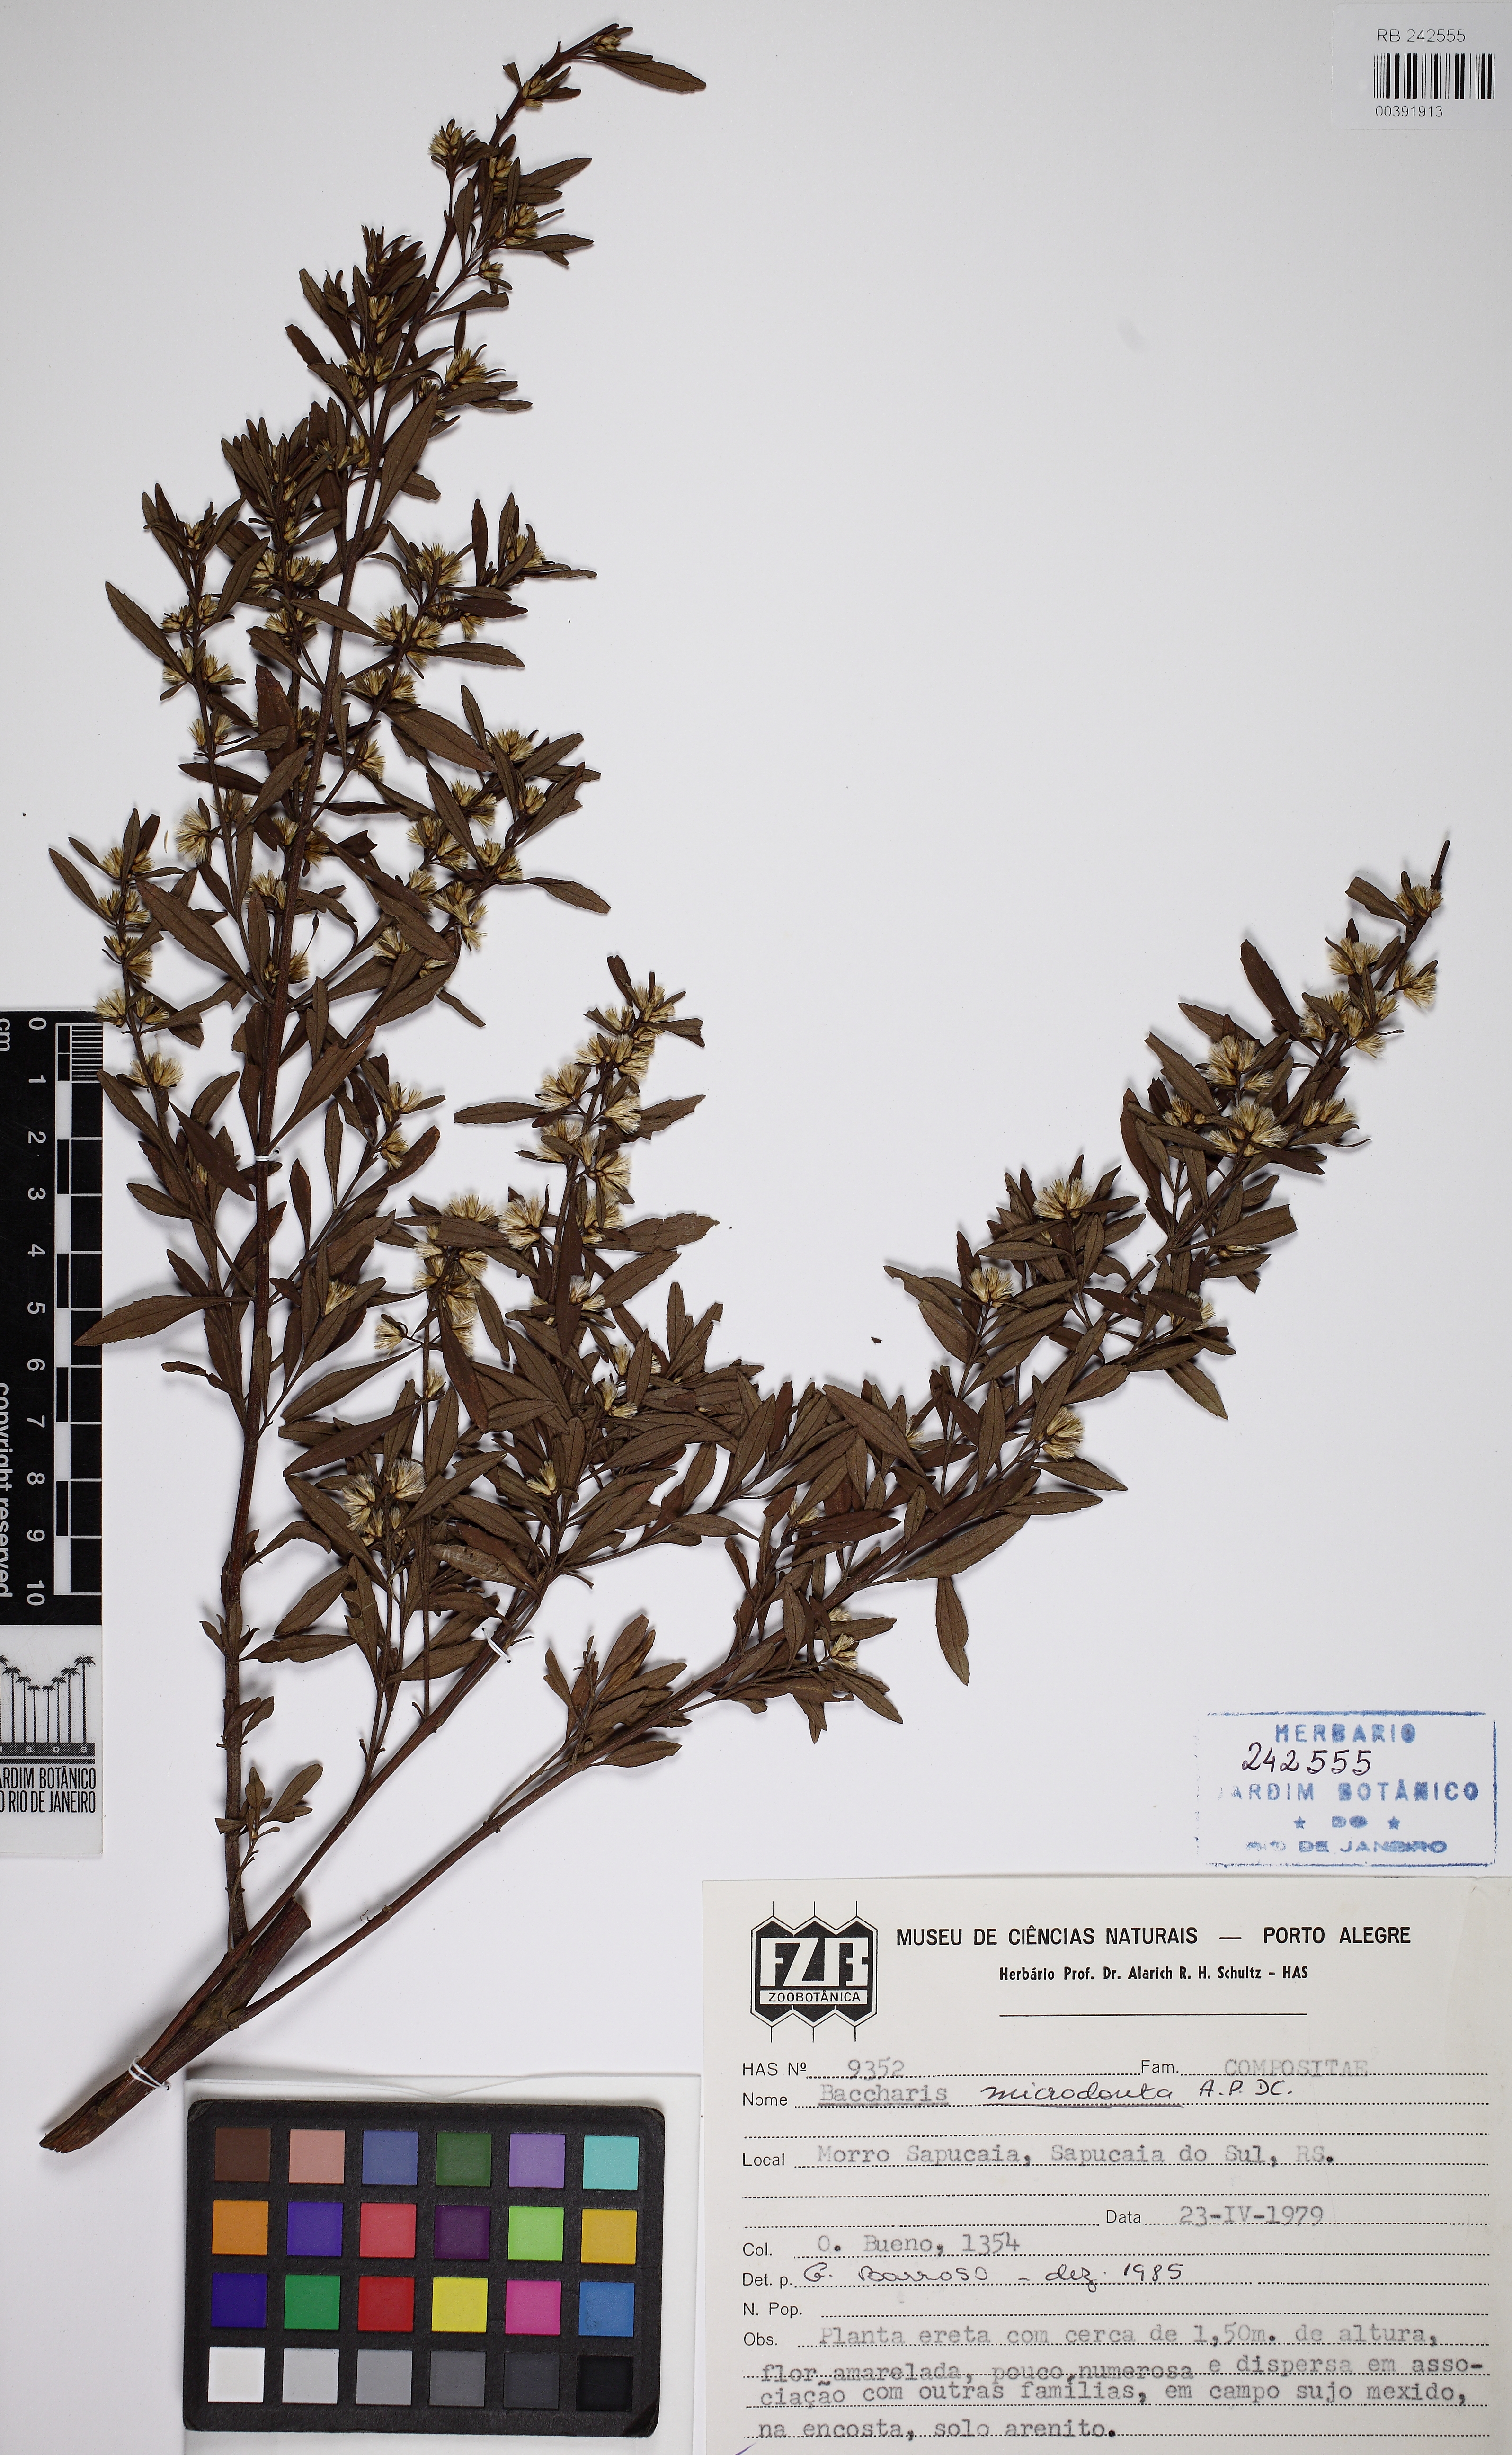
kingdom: Plantae
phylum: Tracheophyta
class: Magnoliopsida
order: Asterales
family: Asteraceae
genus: Baccharis
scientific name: Baccharis microdonta
